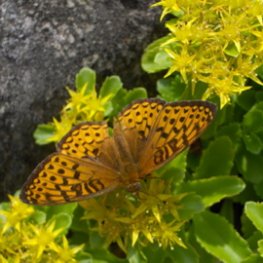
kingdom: Animalia
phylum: Arthropoda
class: Insecta
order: Lepidoptera
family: Nymphalidae
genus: Speyeria
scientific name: Speyeria atlantis
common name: Atlantis Fritillary
